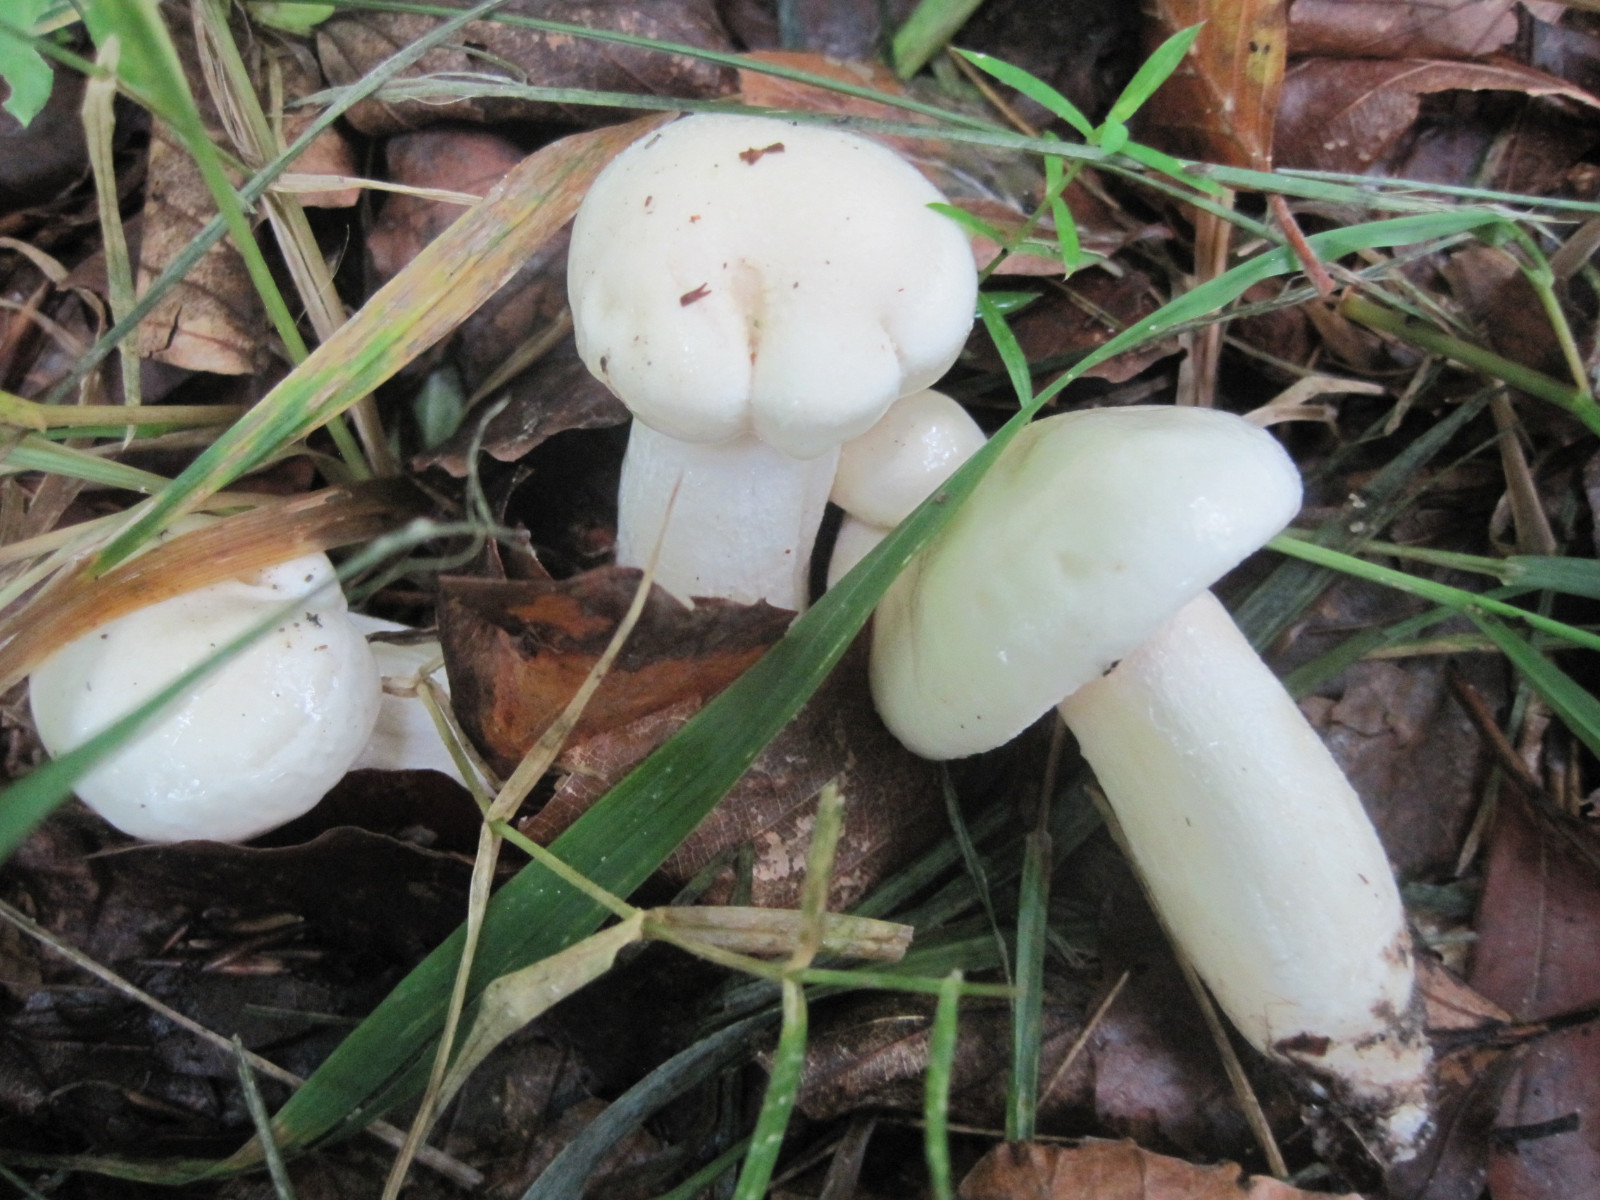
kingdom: Fungi
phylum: Basidiomycota
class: Agaricomycetes
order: Agaricales
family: Hygrophoraceae
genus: Hygrophorus
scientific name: Hygrophorus eburneus
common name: elfenbens-sneglehat
